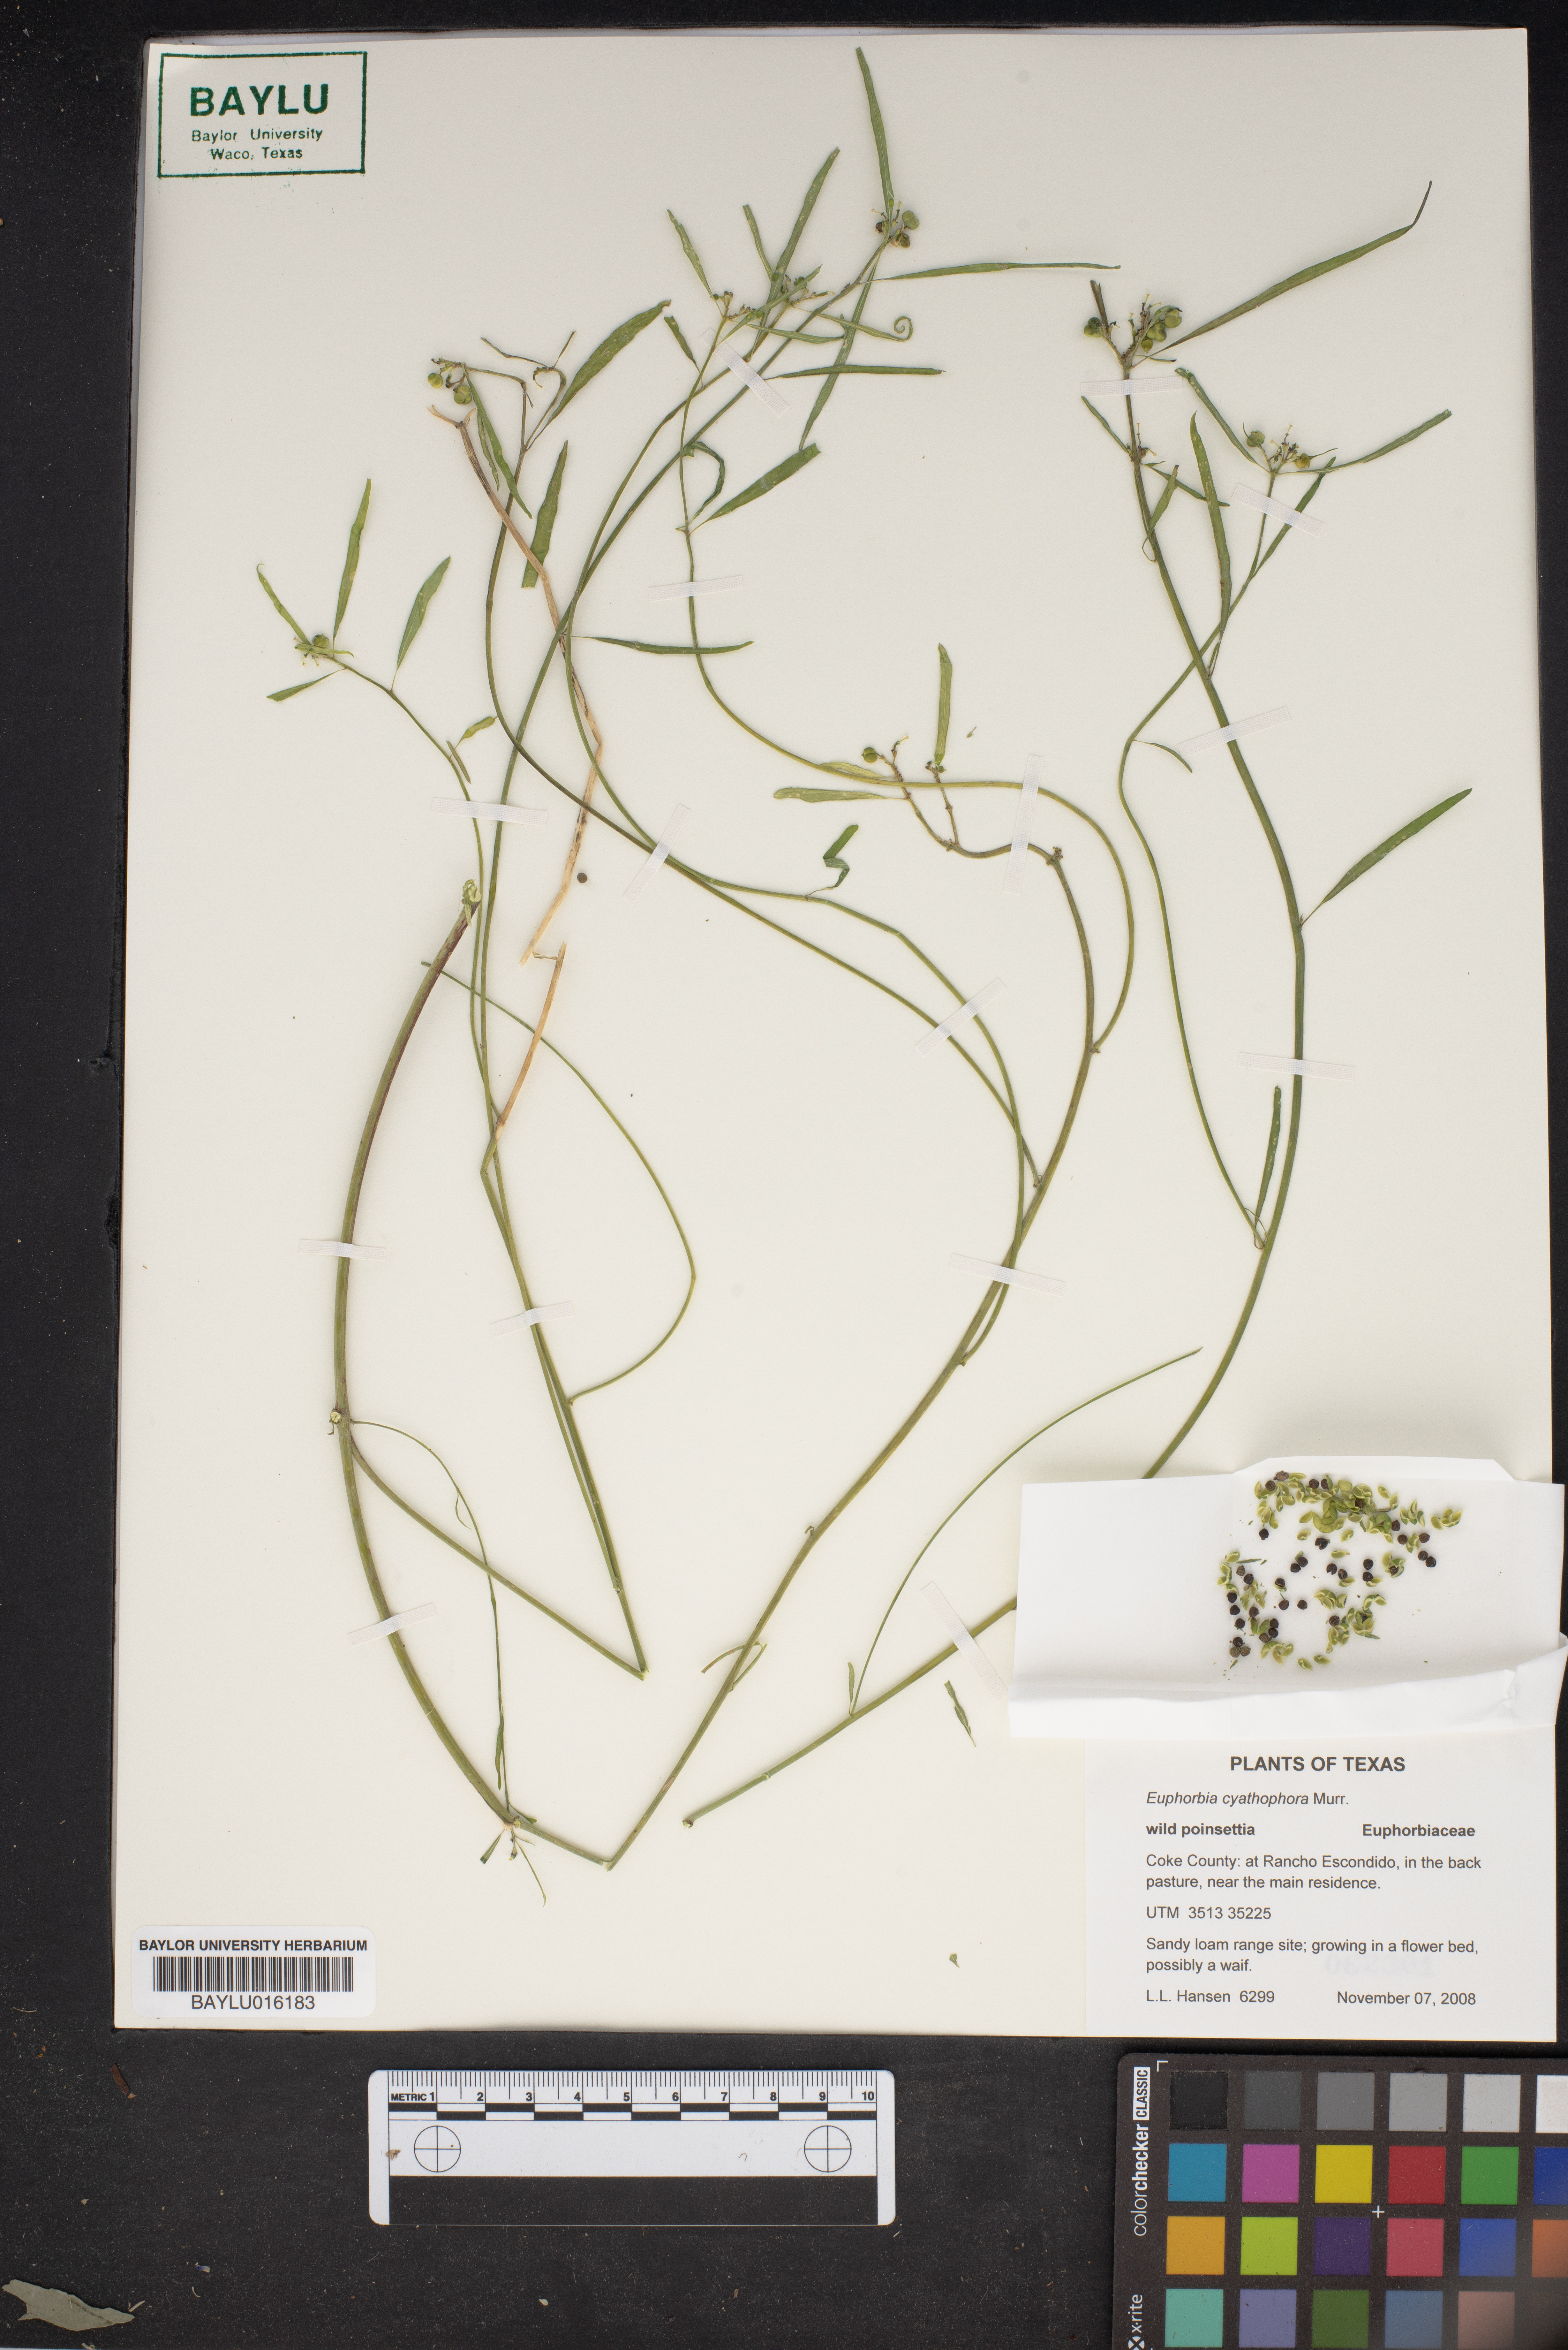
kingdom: Plantae
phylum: Tracheophyta
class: Magnoliopsida
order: Malpighiales
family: Euphorbiaceae
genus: Euphorbia
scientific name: Euphorbia heterophylla
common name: Mexican fireplant
